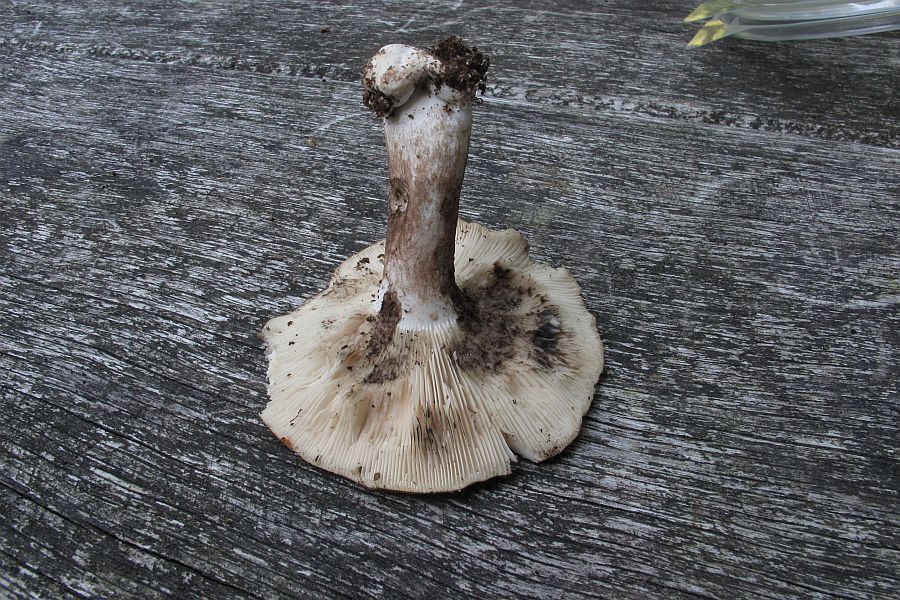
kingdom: Fungi
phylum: Basidiomycota
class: Agaricomycetes
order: Russulales
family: Russulaceae
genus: Russula
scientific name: Russula densifolia
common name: tætbladet skørhat
